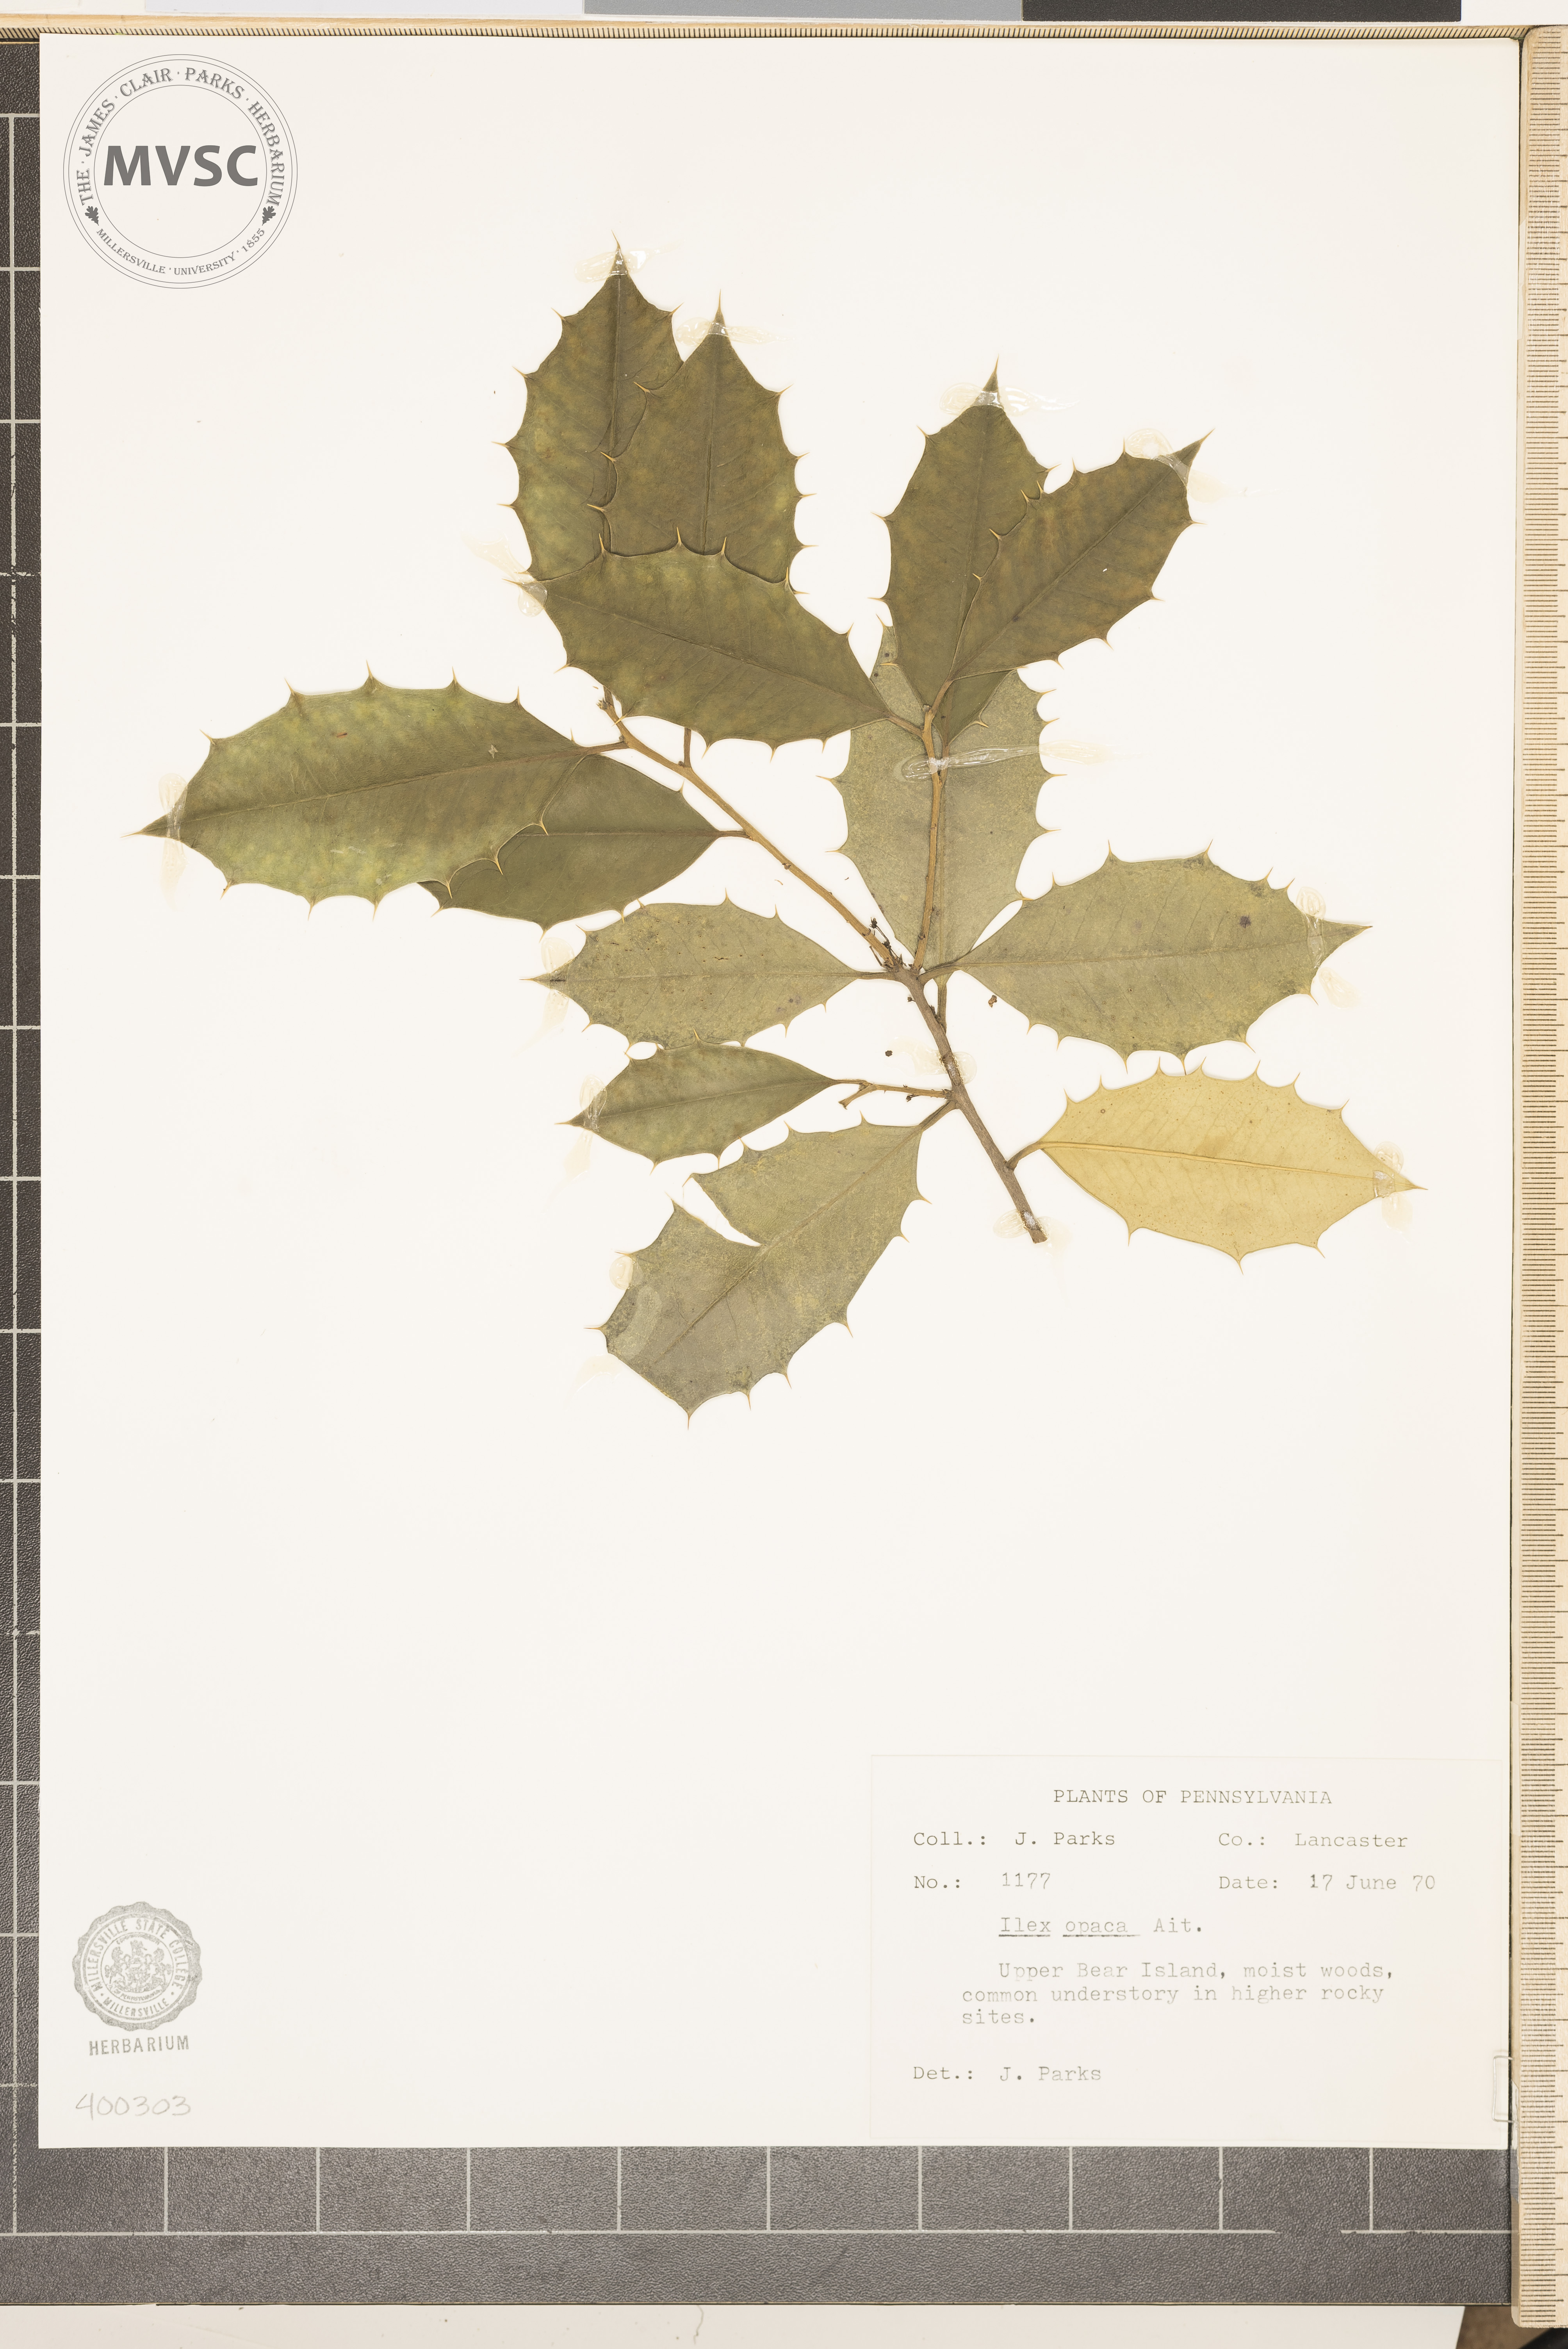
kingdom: Plantae
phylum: Tracheophyta
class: Magnoliopsida
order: Aquifoliales
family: Aquifoliaceae
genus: Ilex
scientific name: Ilex opaca
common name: American holly
